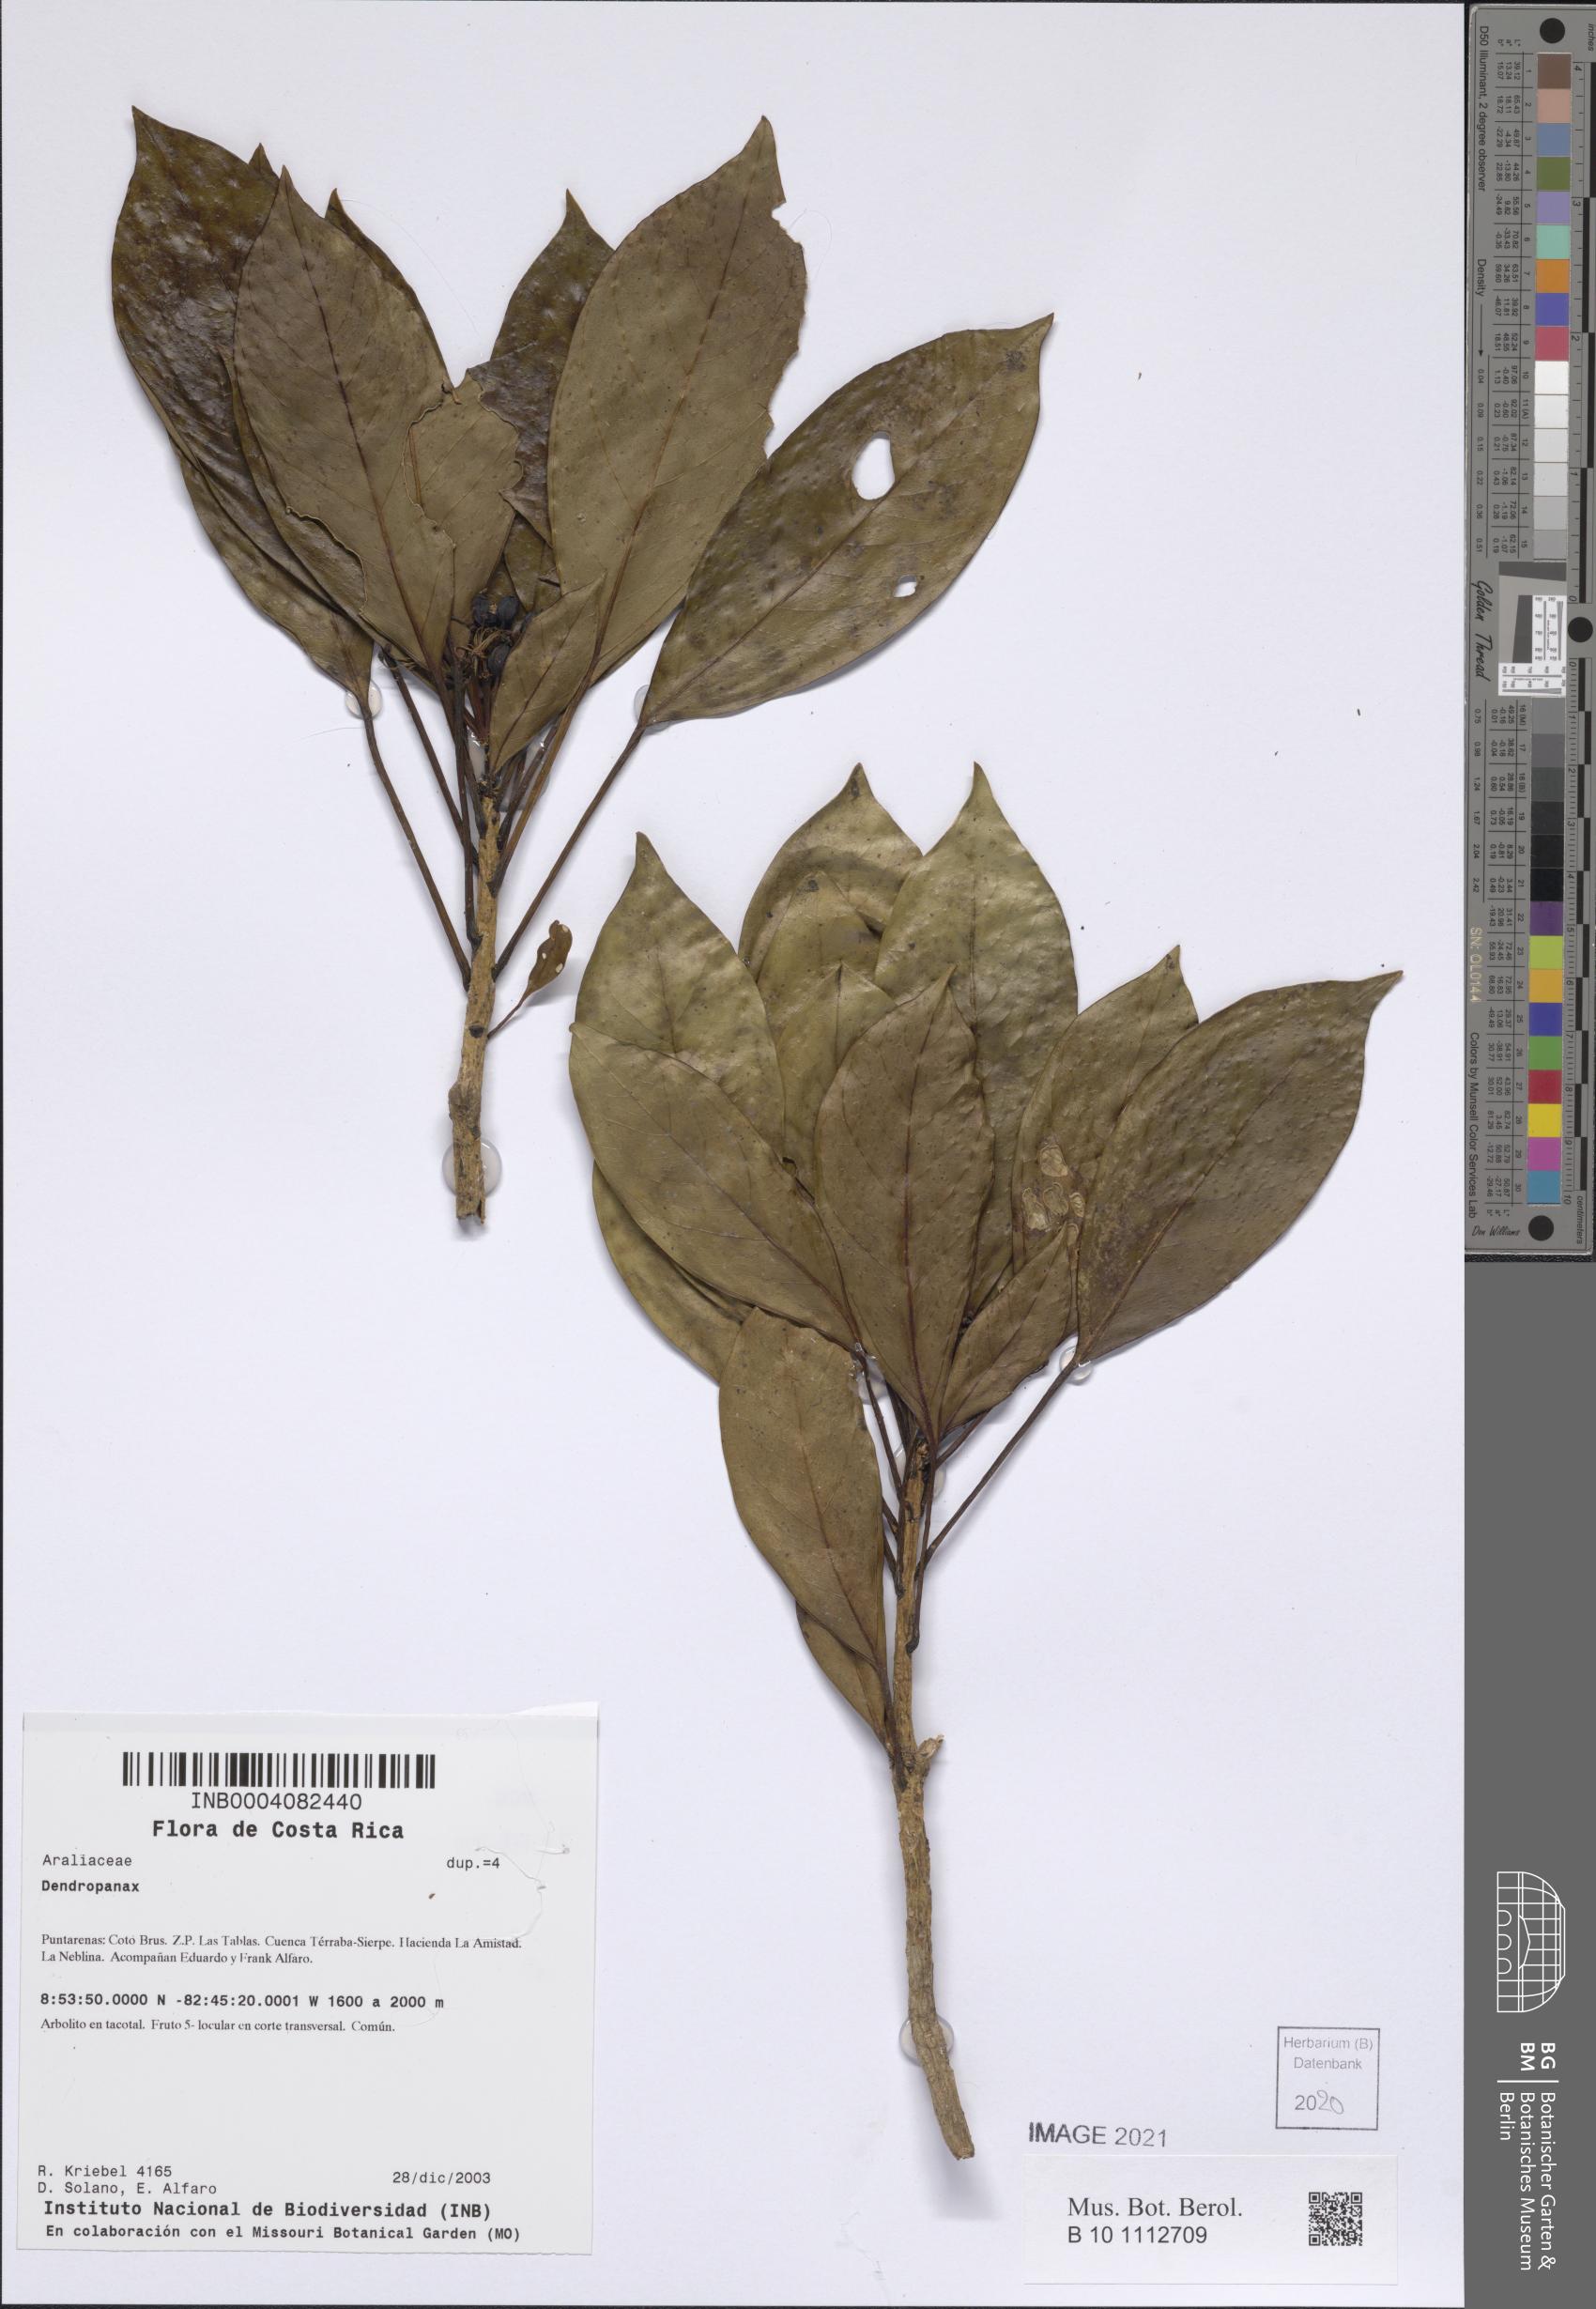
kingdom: Plantae
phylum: Tracheophyta
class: Magnoliopsida
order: Apiales
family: Araliaceae
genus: Dendropanax
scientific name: Dendropanax
